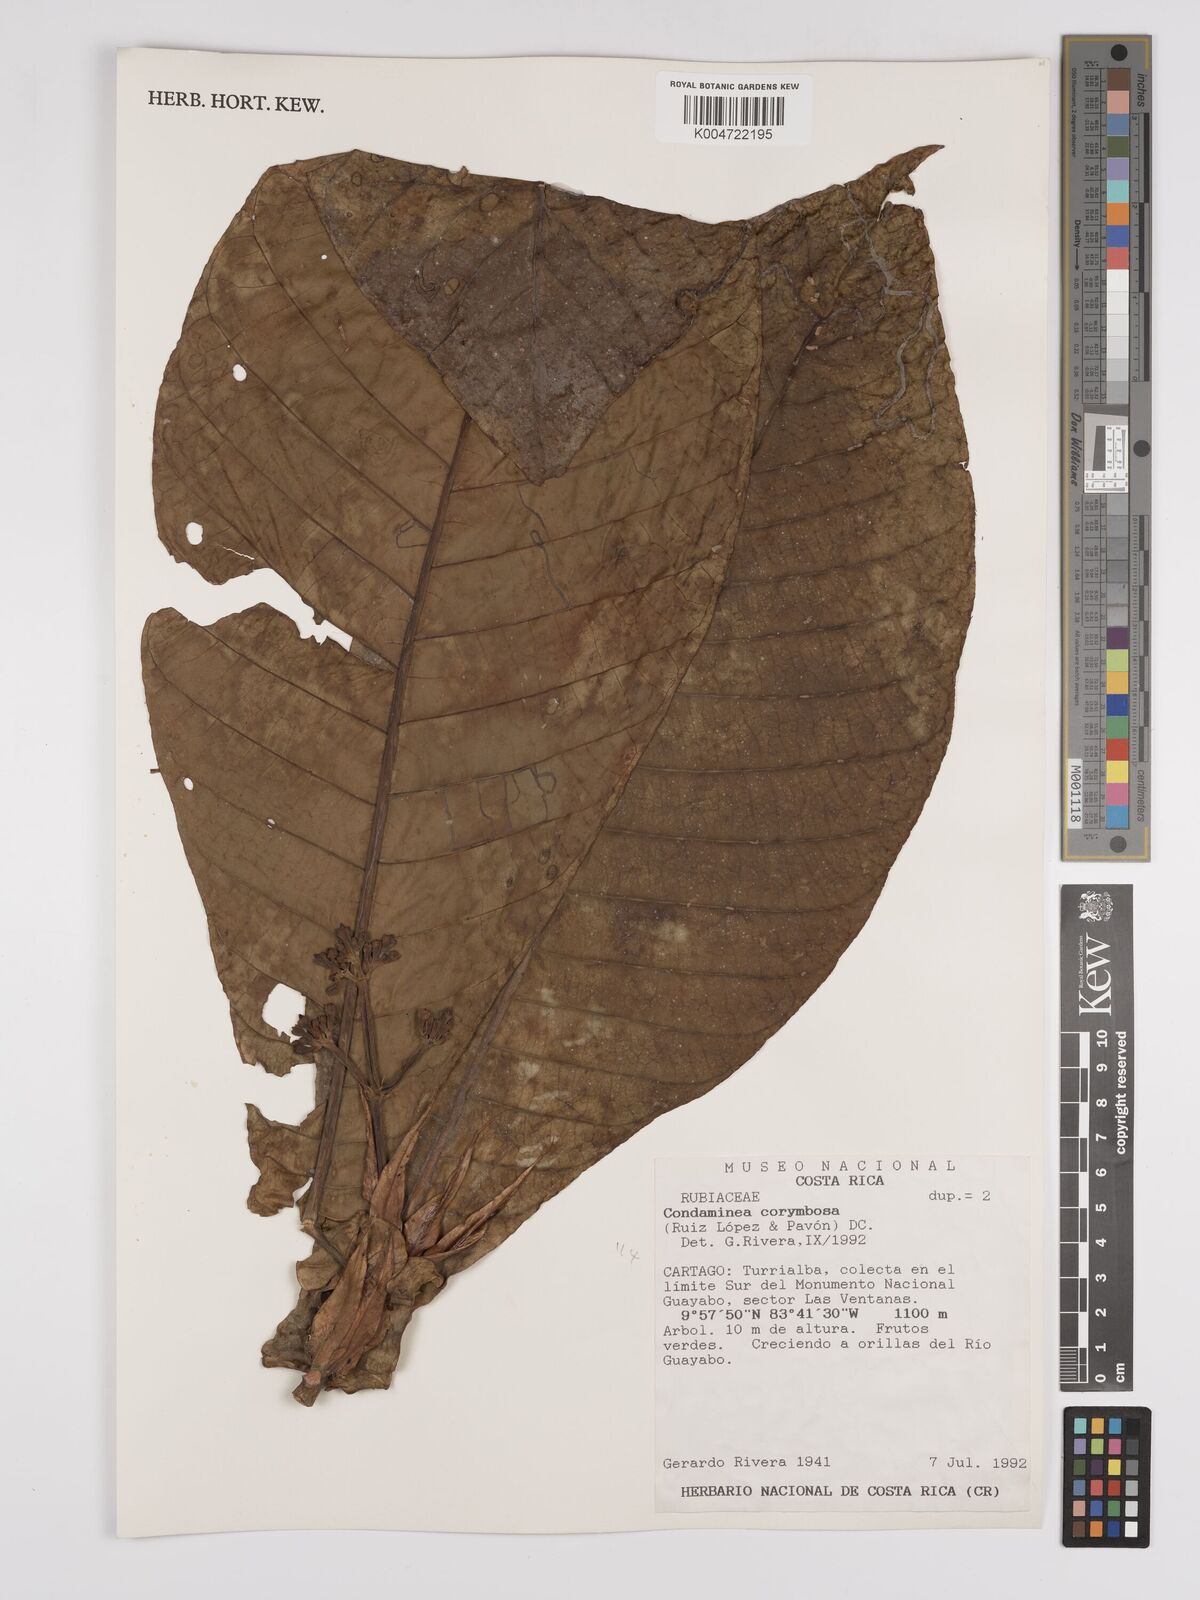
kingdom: Plantae
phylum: Tracheophyta
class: Magnoliopsida
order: Gentianales
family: Rubiaceae
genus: Condaminea
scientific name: Condaminea corymbosa
